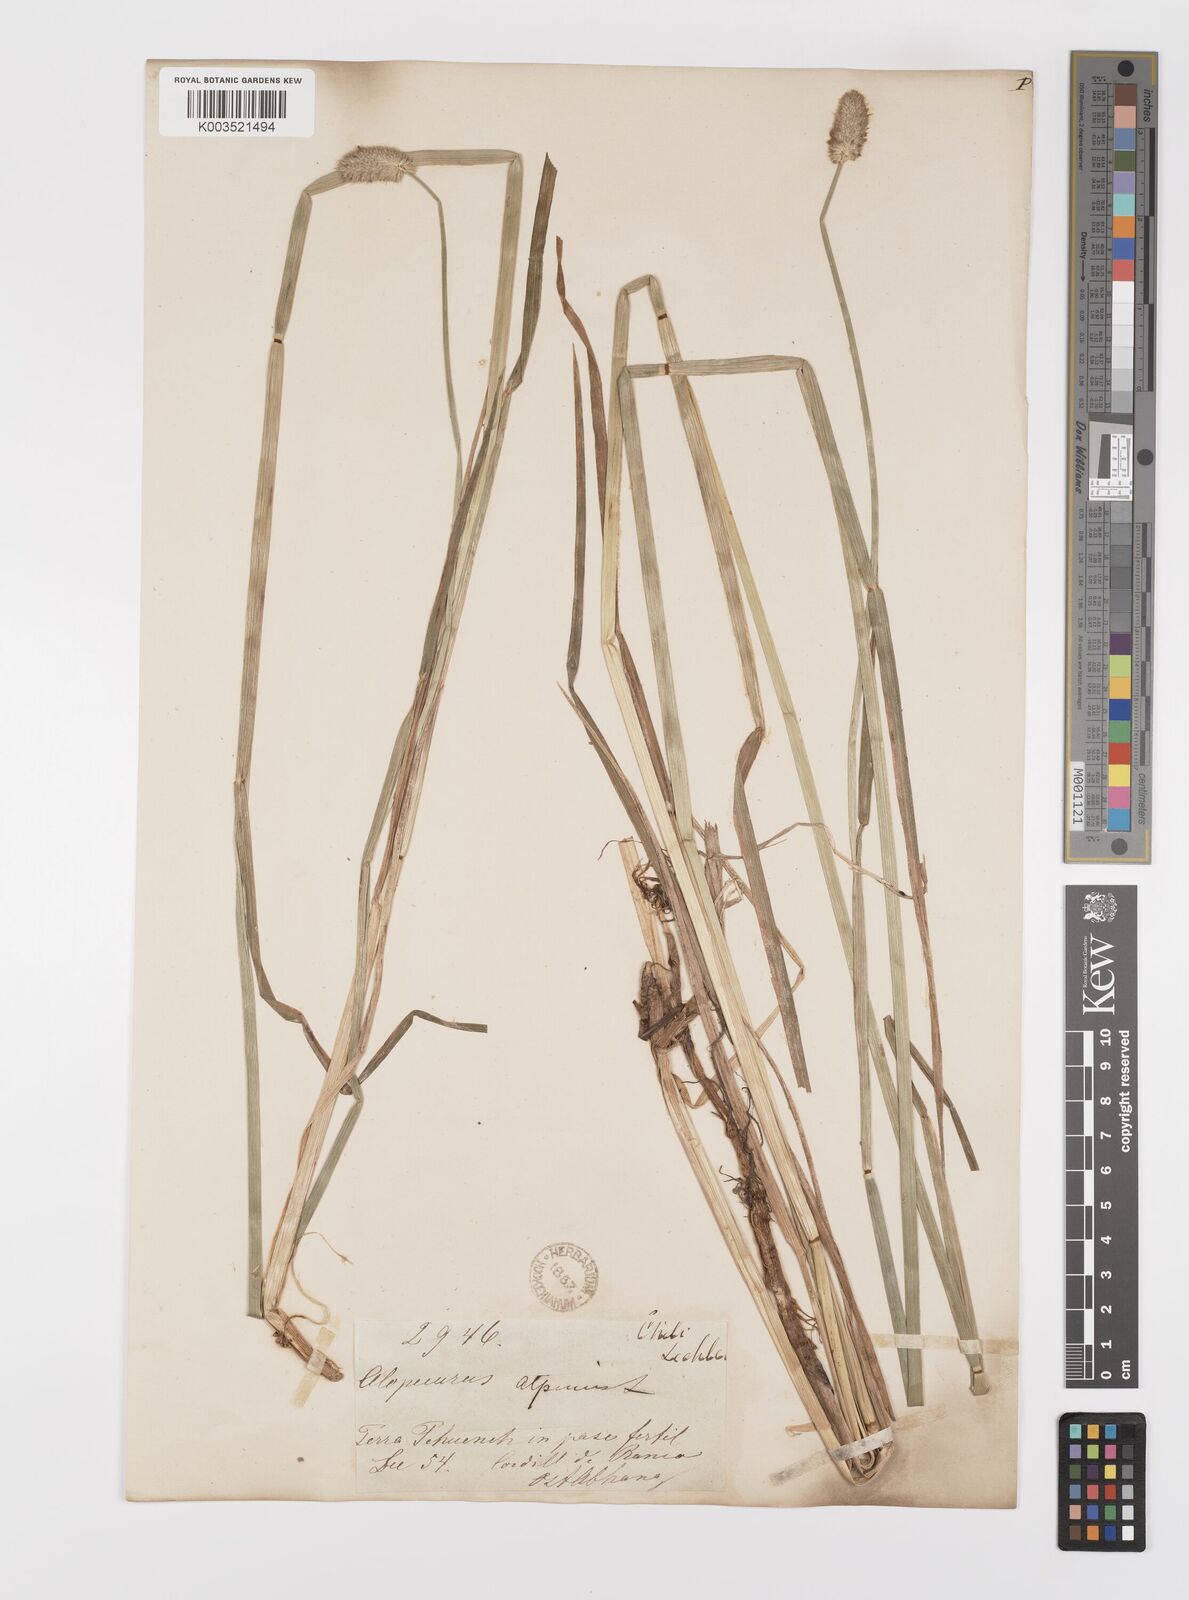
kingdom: Plantae
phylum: Tracheophyta
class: Liliopsida
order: Poales
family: Poaceae
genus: Alopecurus
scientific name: Alopecurus magellanicus
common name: Alpine foxtail
